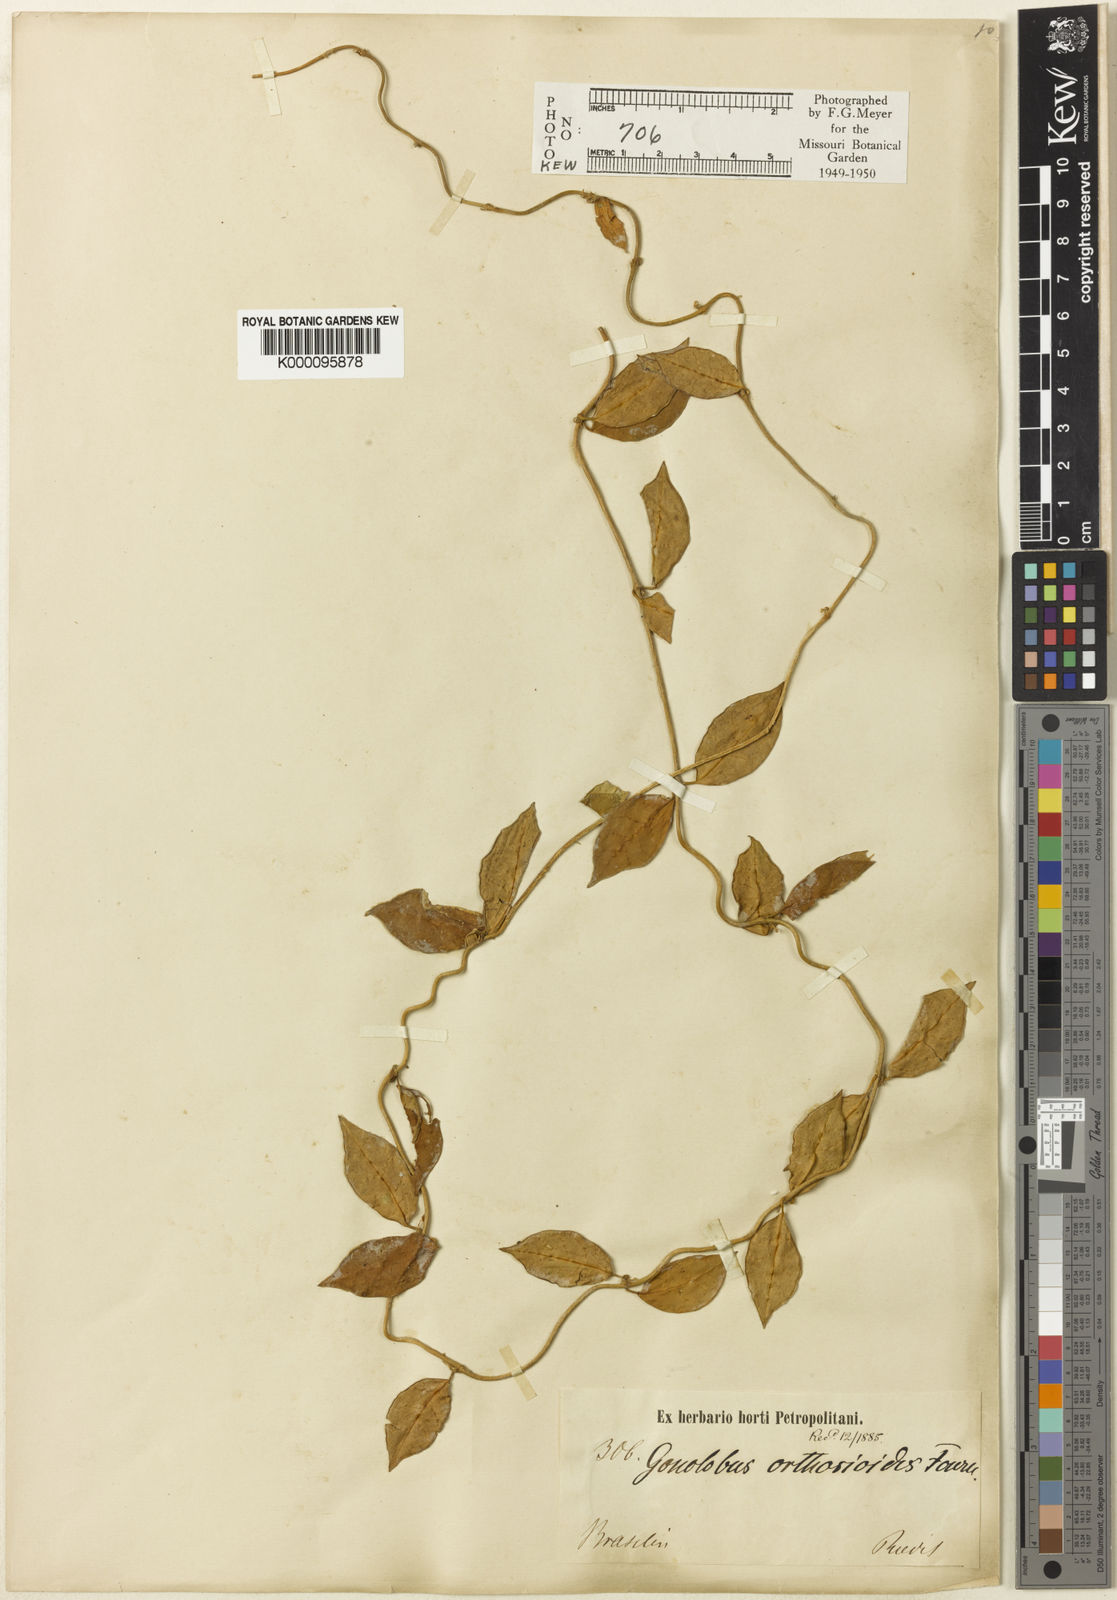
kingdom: Plantae
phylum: Tracheophyta
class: Magnoliopsida
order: Gentianales
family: Apocynaceae
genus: Matelea
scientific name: Matelea orthosioides
